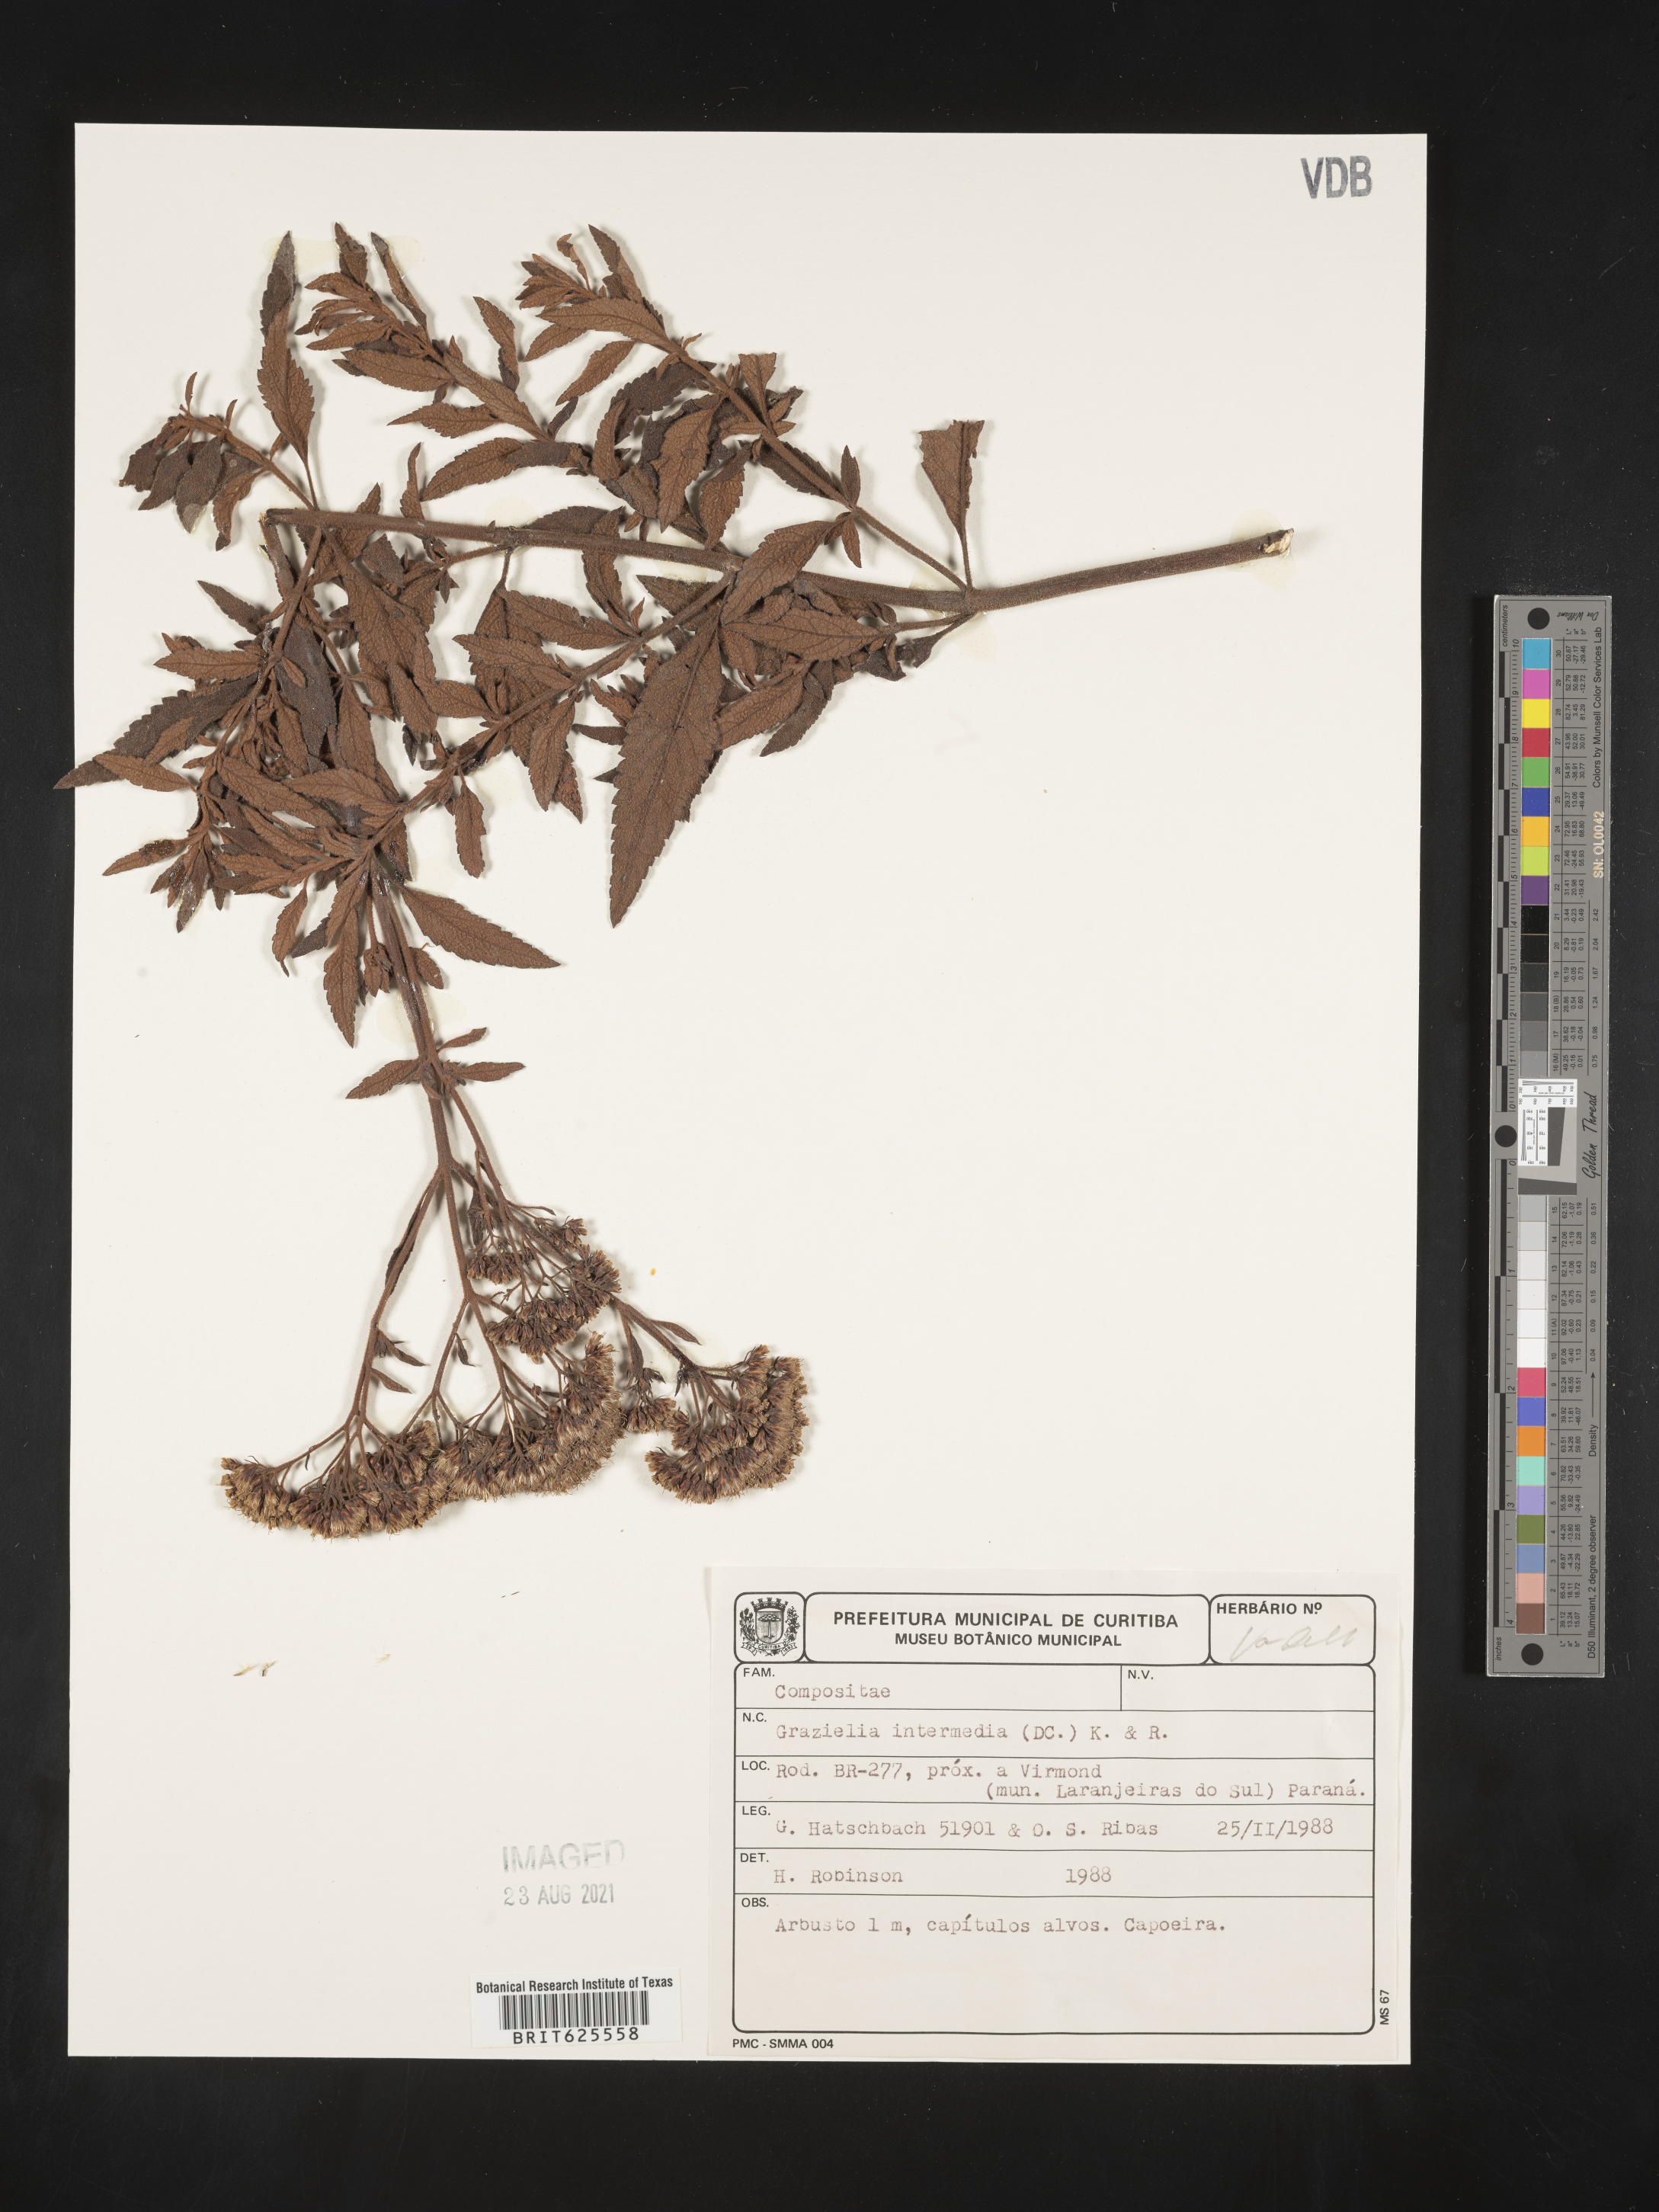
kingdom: Plantae
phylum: Tracheophyta
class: Magnoliopsida
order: Asterales
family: Asteraceae
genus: Grazielia
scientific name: Grazielia intermedia
